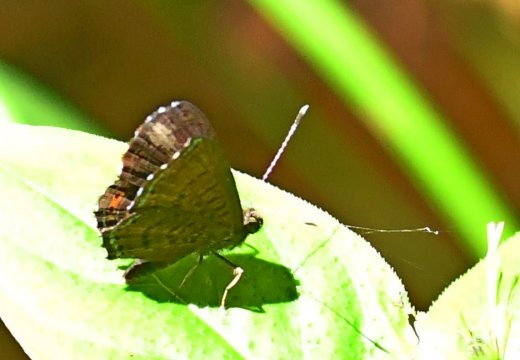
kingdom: Animalia
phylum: Arthropoda
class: Insecta
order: Lepidoptera
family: Riodinidae
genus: Detritivora
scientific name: Detritivora
